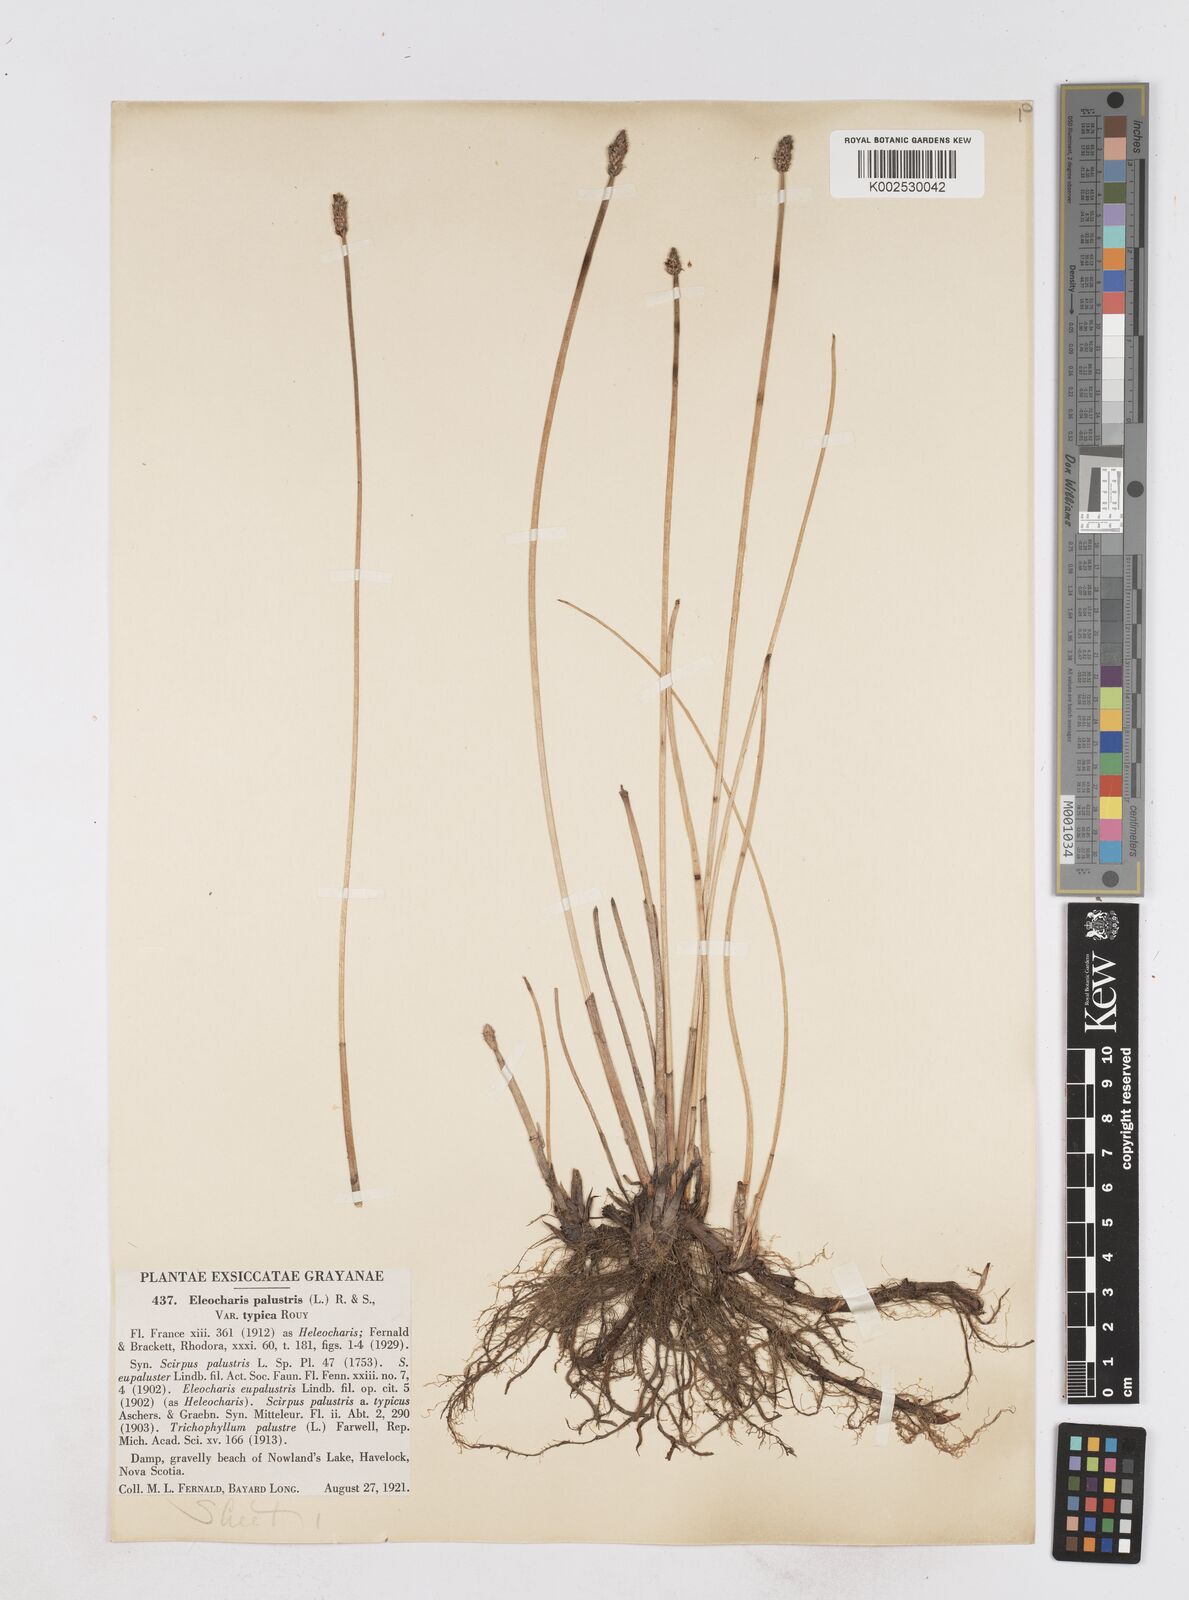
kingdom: Plantae
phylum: Tracheophyta
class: Liliopsida
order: Poales
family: Cyperaceae
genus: Eleocharis
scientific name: Eleocharis palustris
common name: Common spike-rush
